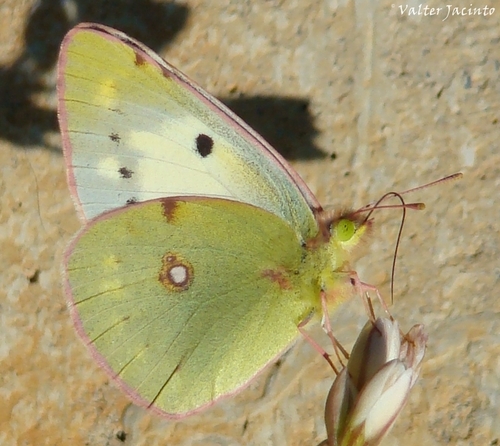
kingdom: Animalia
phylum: Arthropoda
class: Insecta
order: Lepidoptera
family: Pieridae
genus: Colias
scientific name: Colias croceus
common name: Clouded yellow
